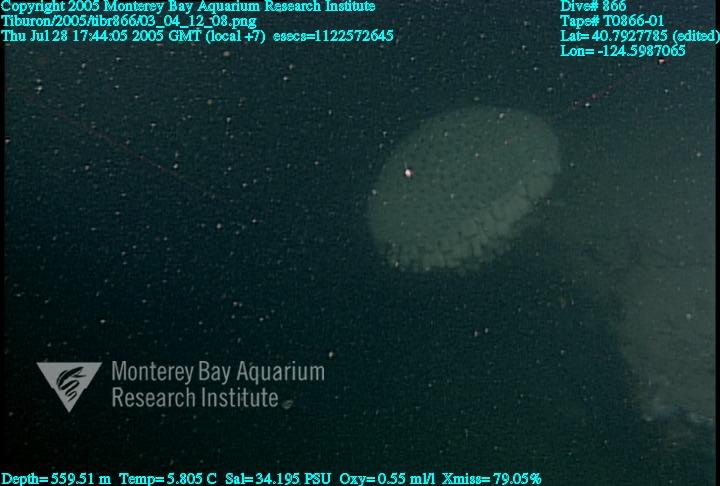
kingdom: Animalia
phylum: Porifera
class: Hexactinellida
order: Sceptrulophora
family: Aphrocallistidae
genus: Heterochone
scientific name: Heterochone calyx
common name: Fingered goblet glass sponge
